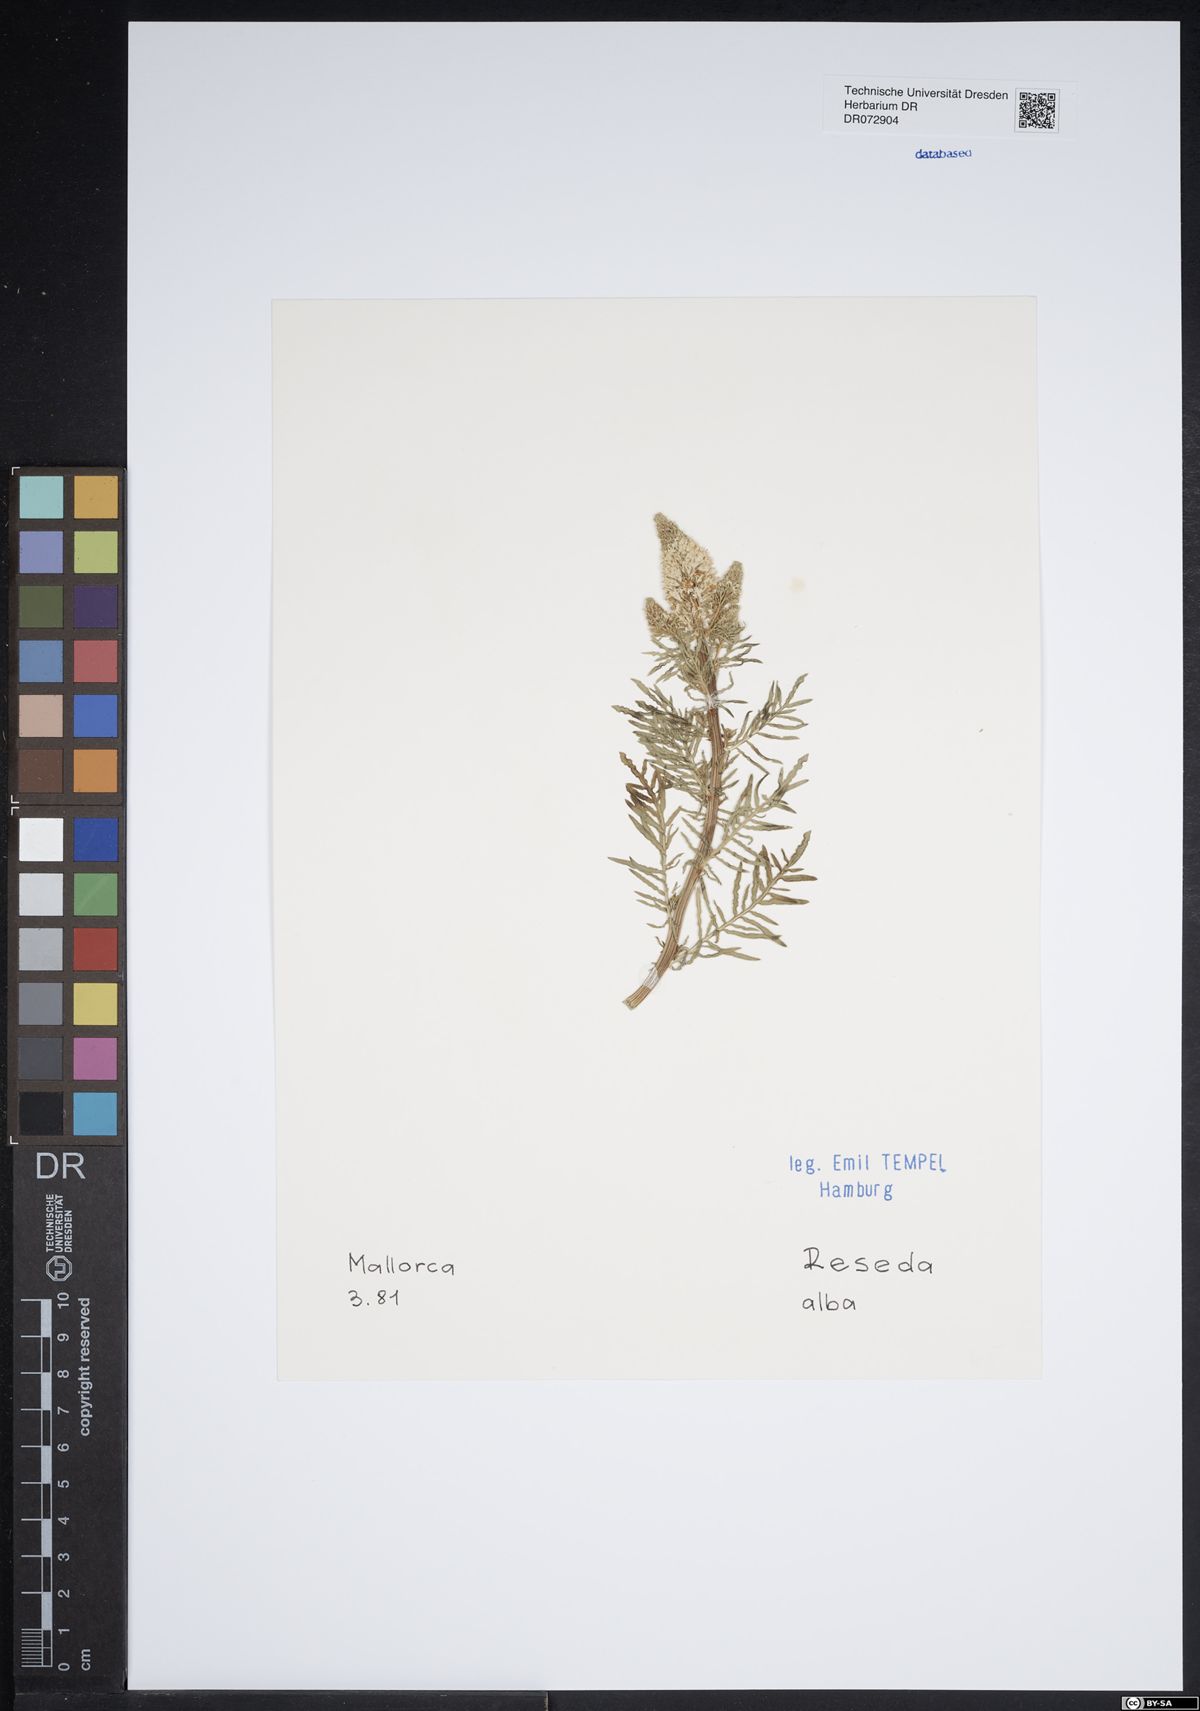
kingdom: Plantae
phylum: Tracheophyta
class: Magnoliopsida
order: Brassicales
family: Resedaceae
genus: Reseda
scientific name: Reseda alba
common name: White mignonette
